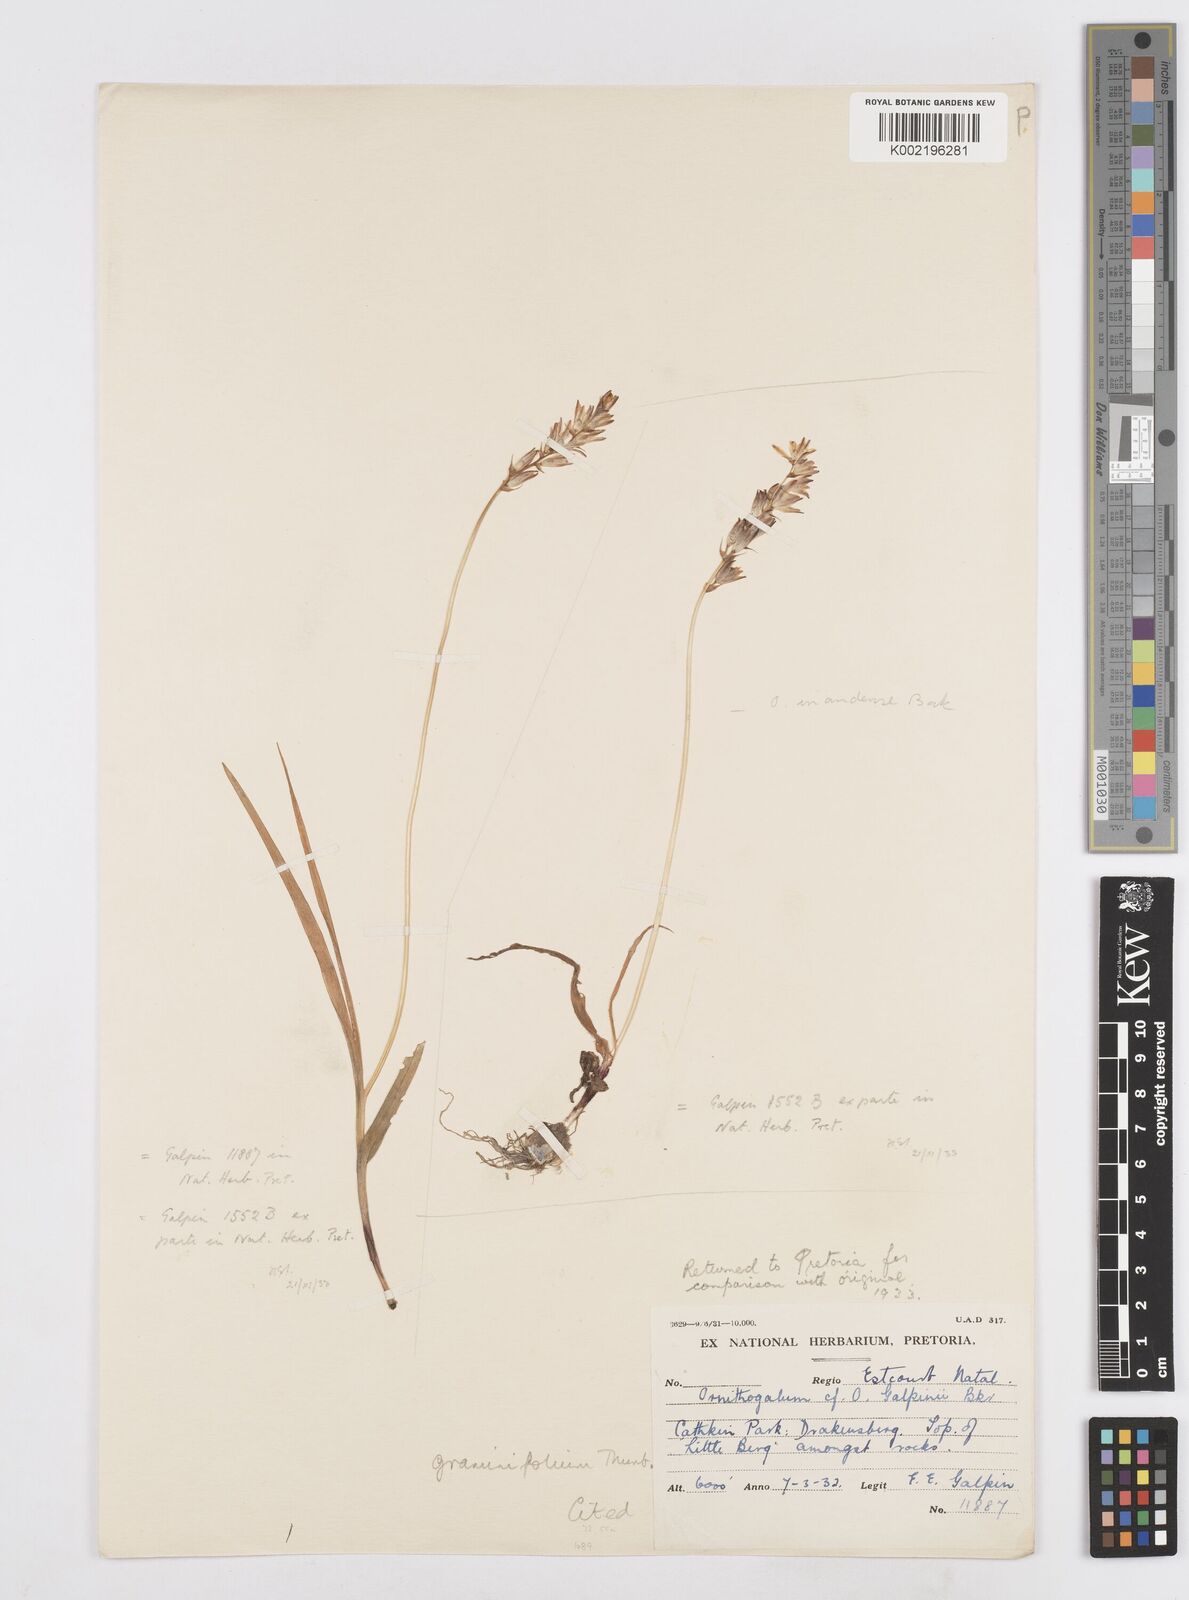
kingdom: Plantae
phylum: Tracheophyta
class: Liliopsida
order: Asparagales
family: Asparagaceae
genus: Ornithogalum
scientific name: Ornithogalum graminifolium
